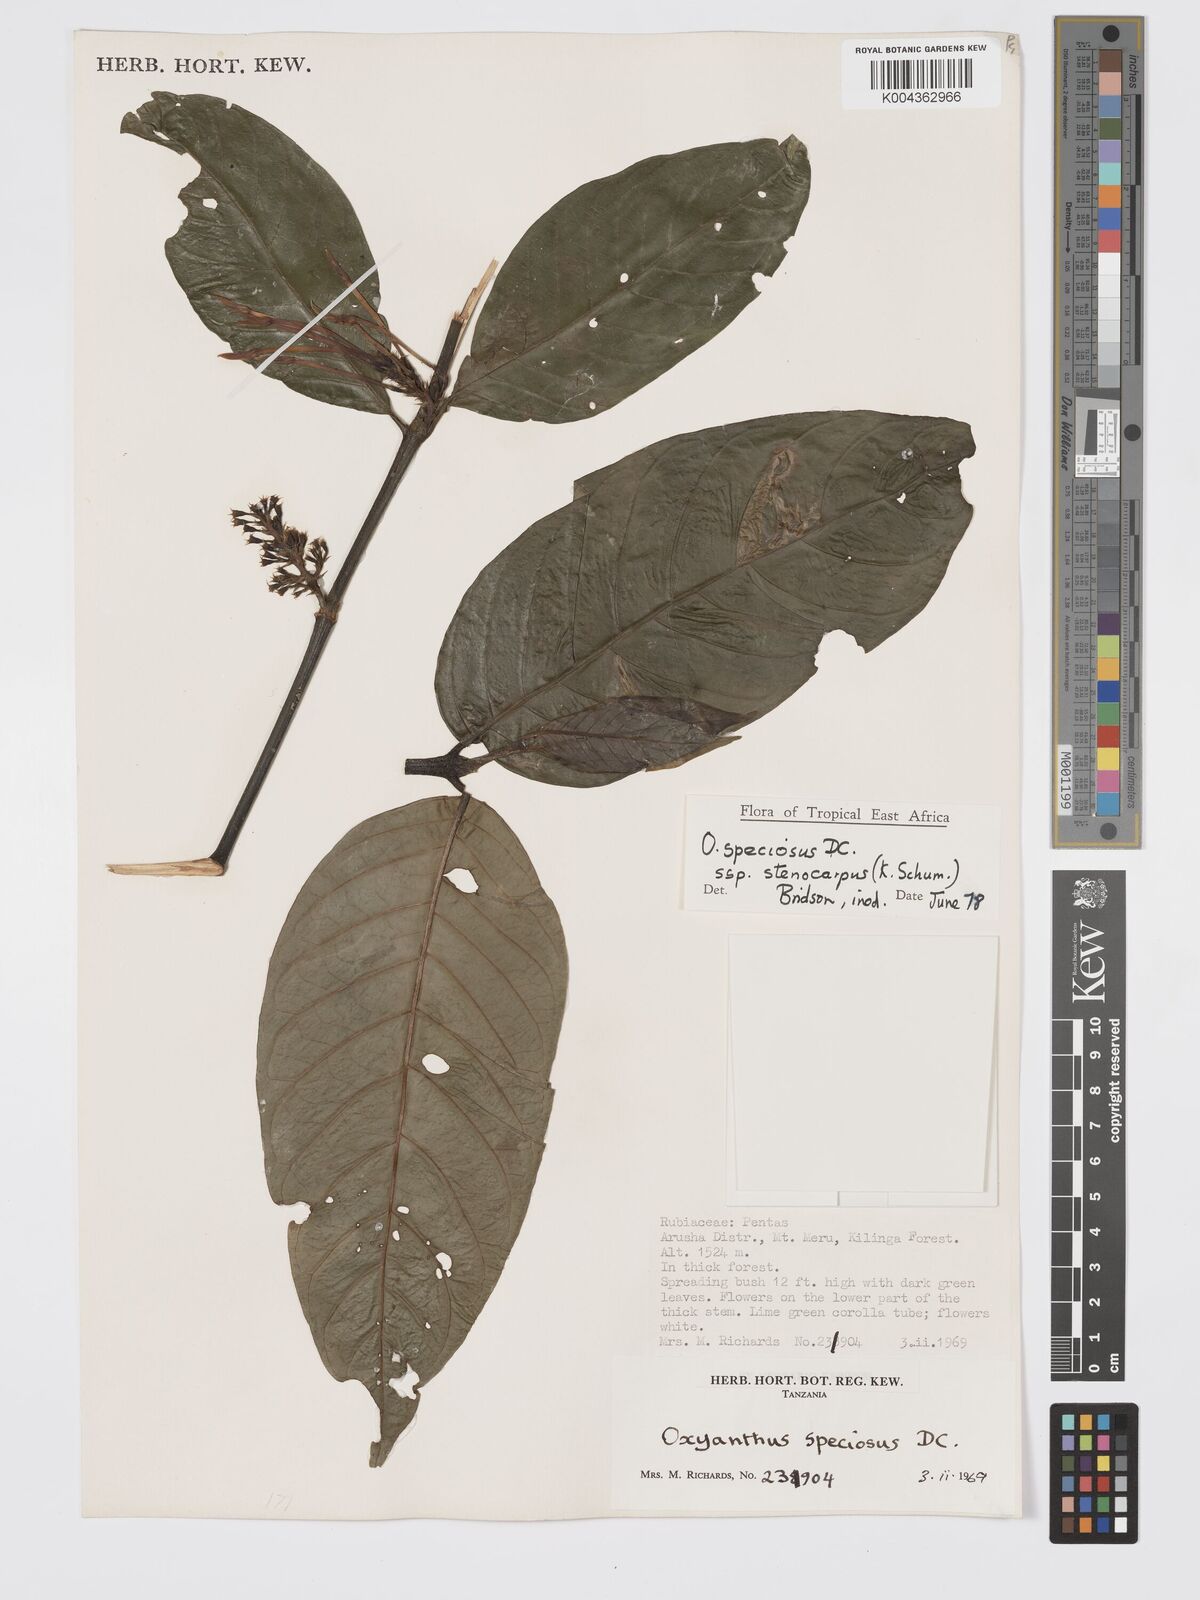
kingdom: Plantae
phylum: Tracheophyta
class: Magnoliopsida
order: Gentianales
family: Rubiaceae
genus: Oxyanthus
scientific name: Oxyanthus speciosus
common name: Whipstick loquat
